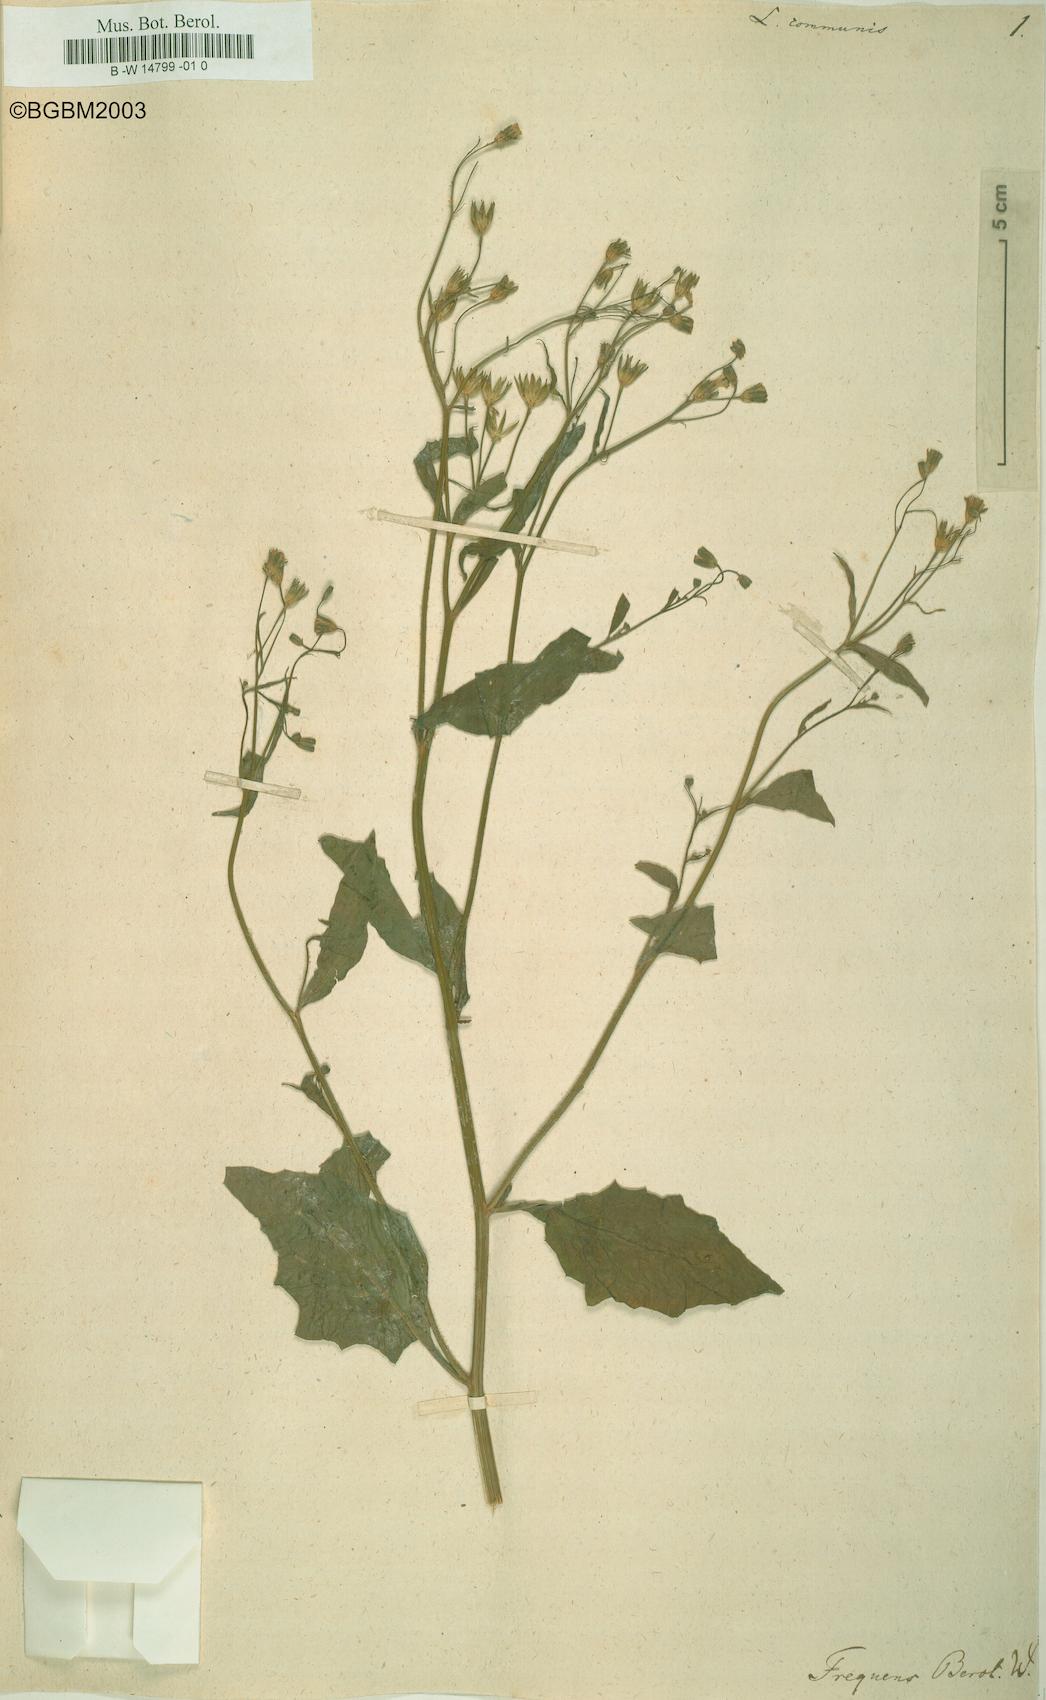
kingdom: Plantae
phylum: Tracheophyta
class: Magnoliopsida
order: Asterales
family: Asteraceae
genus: Lapsana
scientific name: Lapsana communis
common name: Nipplewort
